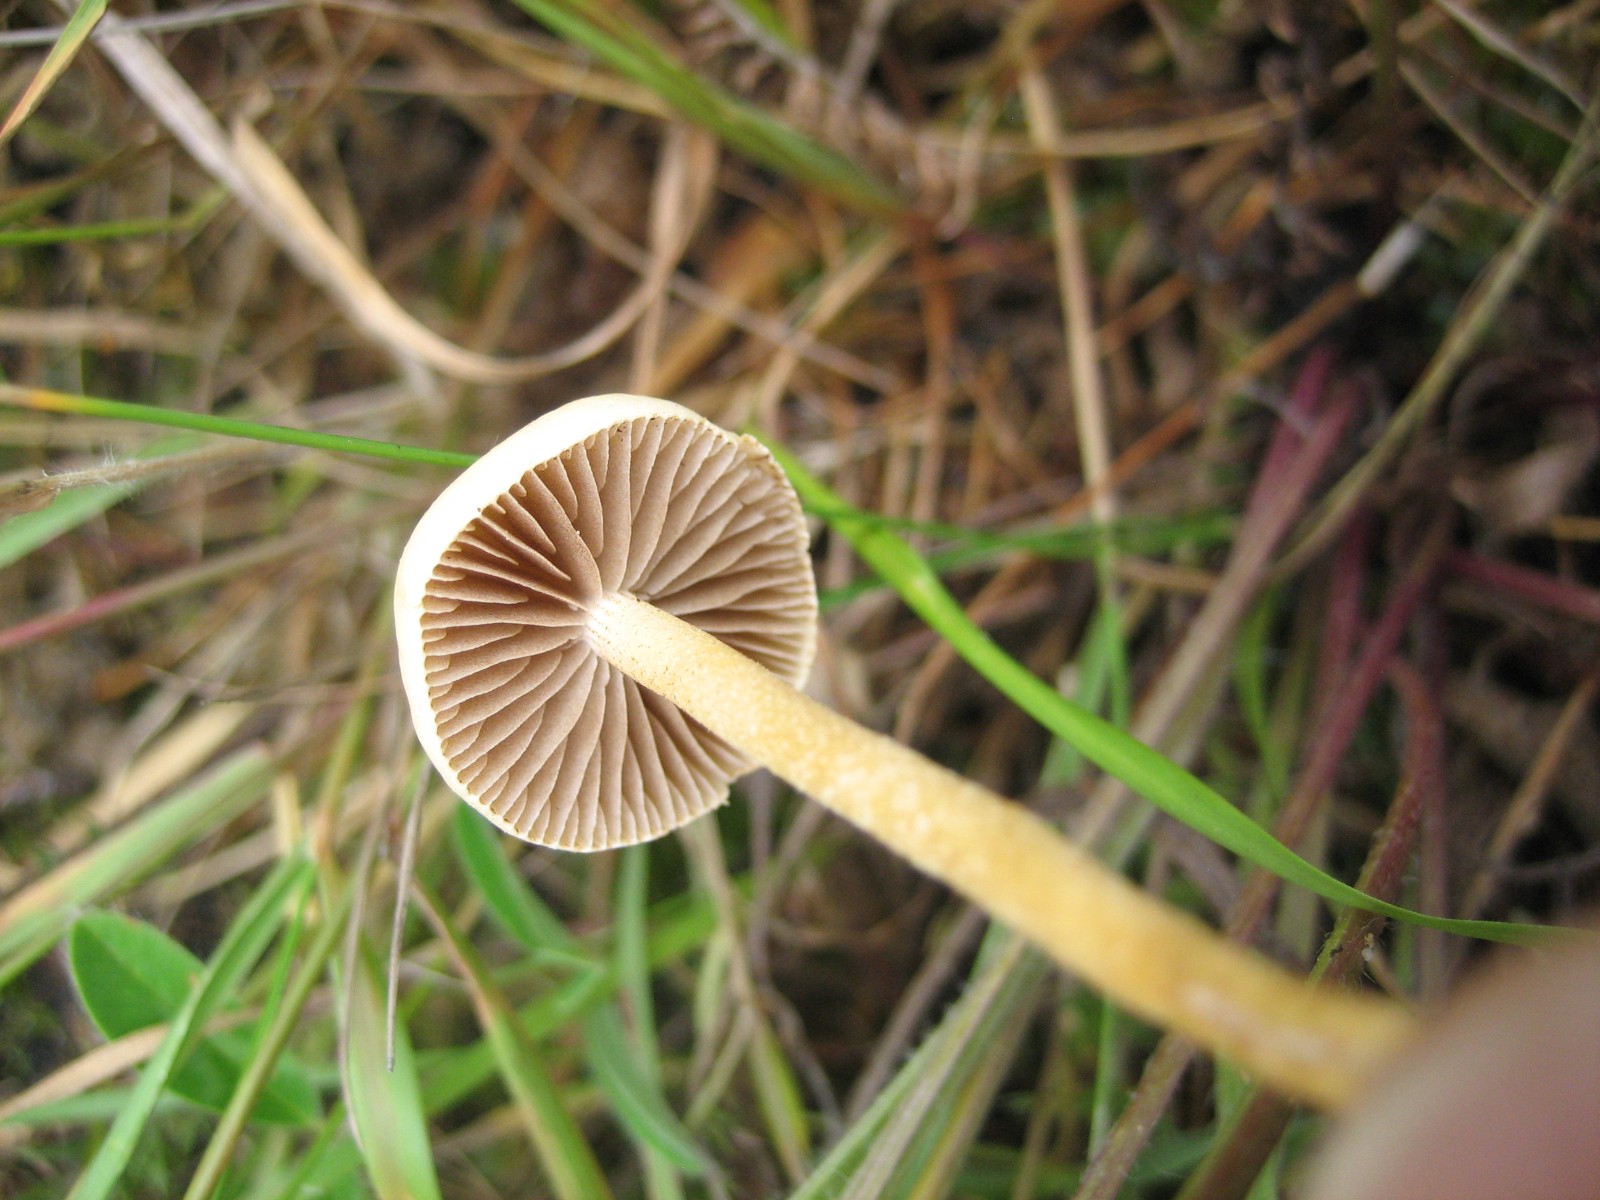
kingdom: Fungi
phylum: Basidiomycota
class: Agaricomycetes
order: Agaricales
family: Strophariaceae
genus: Agrocybe
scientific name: Agrocybe pediades
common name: almindelig agerhat
